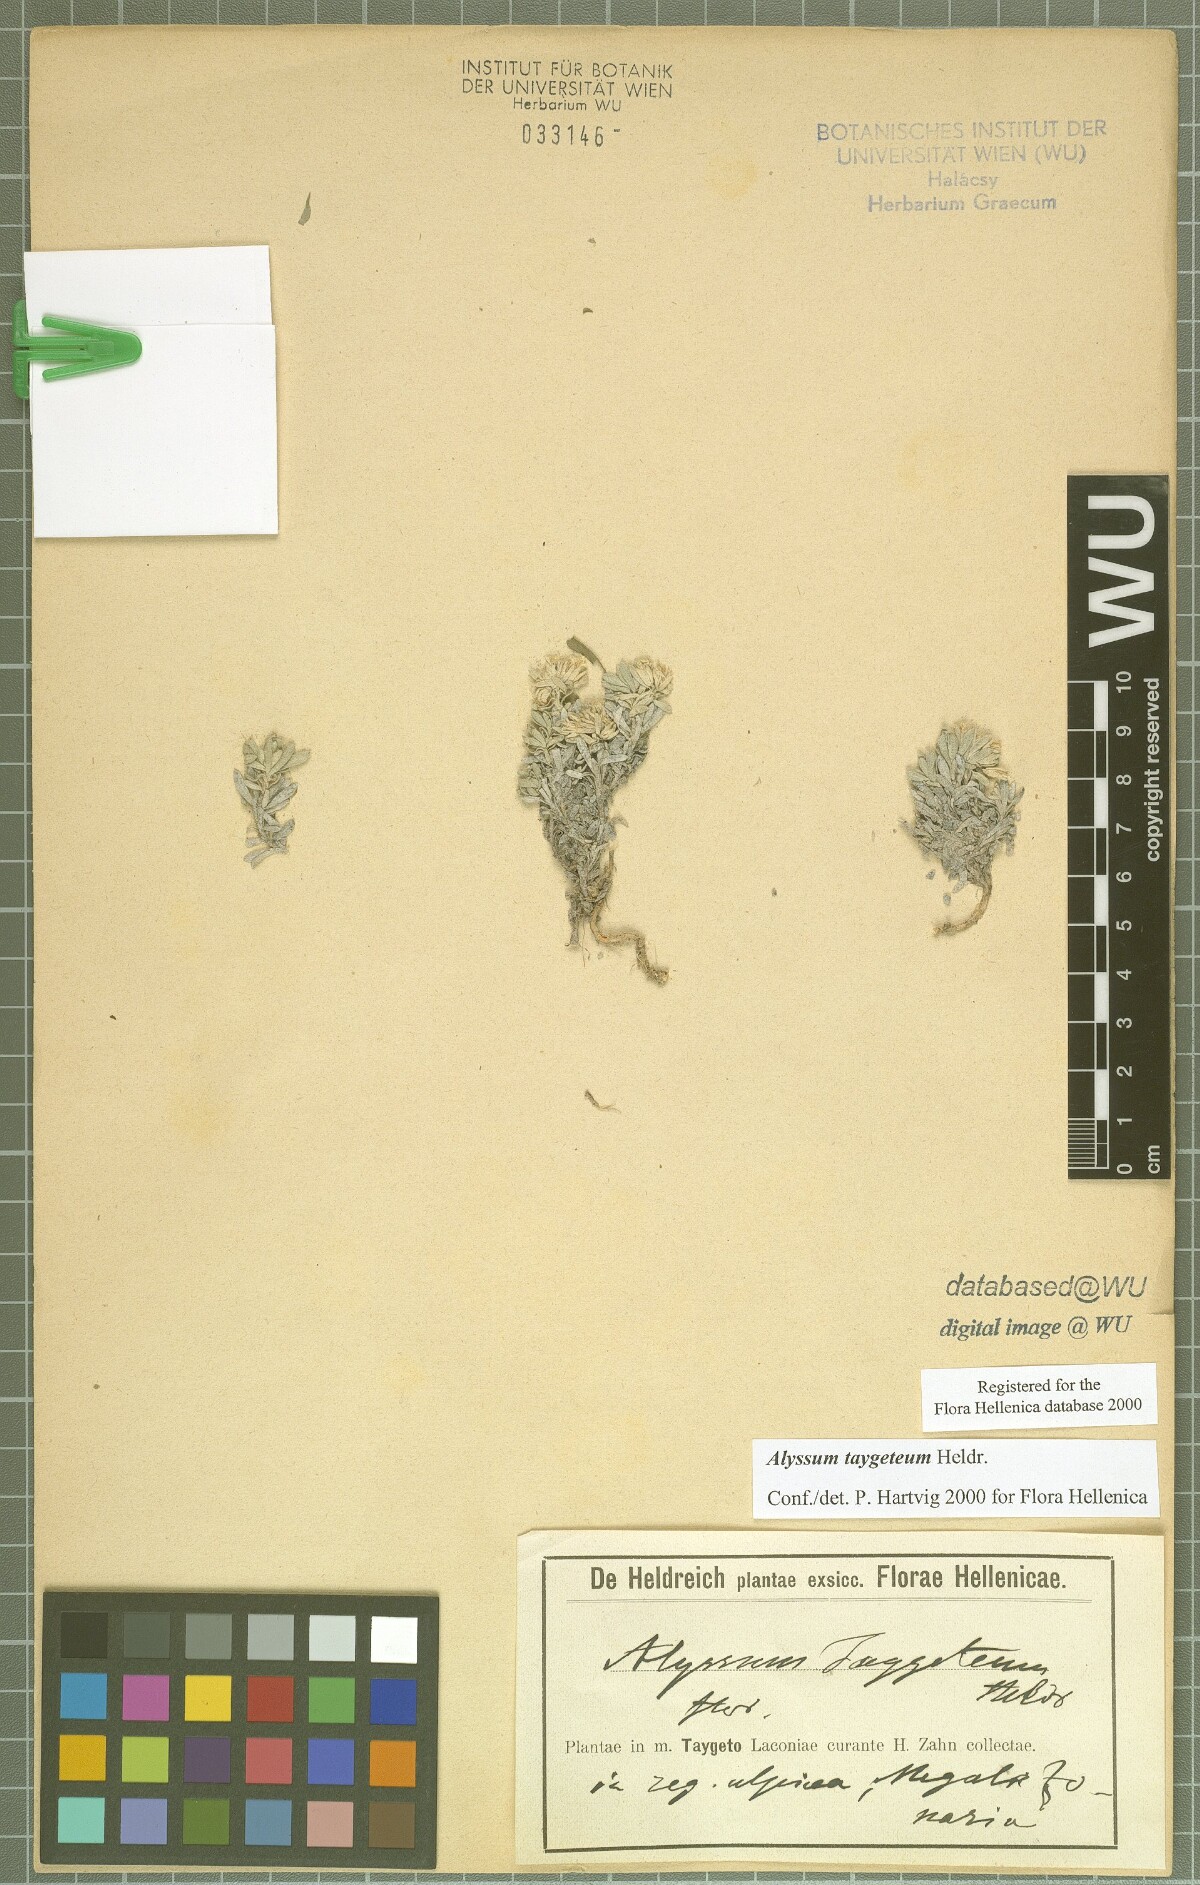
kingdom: Plantae
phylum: Tracheophyta
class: Magnoliopsida
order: Brassicales
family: Brassicaceae
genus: Alyssum
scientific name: Alyssum taygeteum
